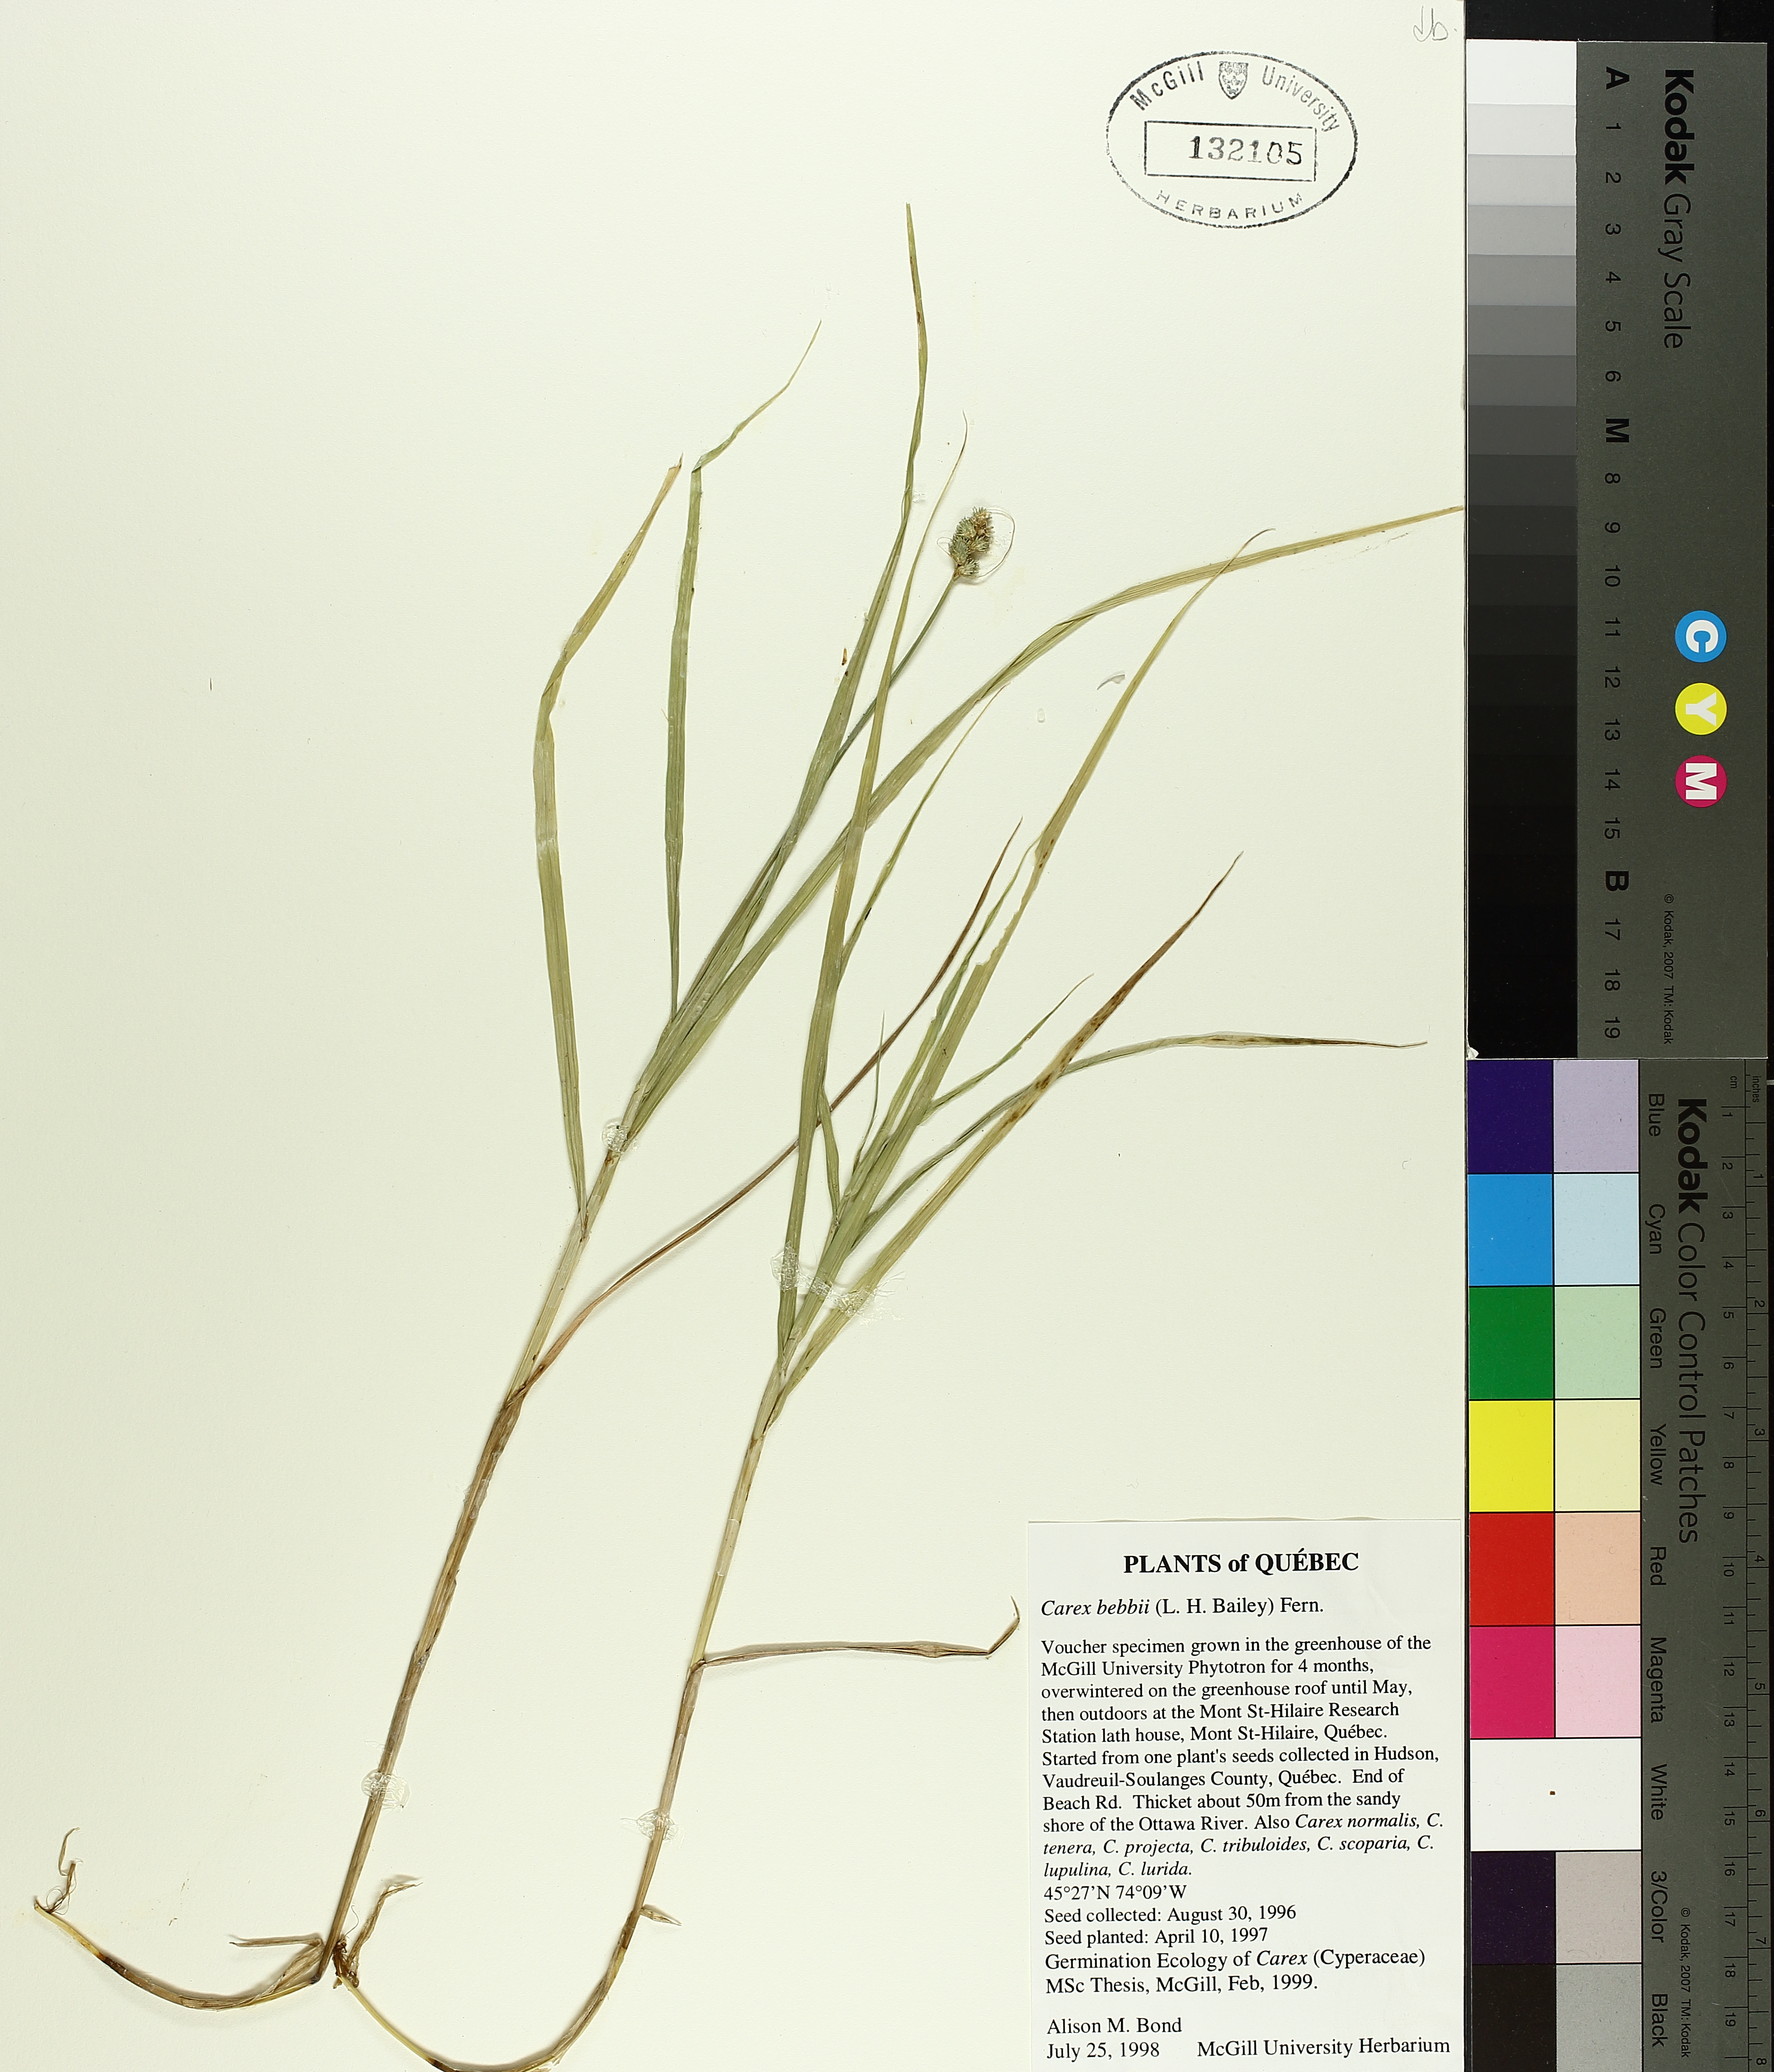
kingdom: Plantae
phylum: Tracheophyta
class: Liliopsida
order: Poales
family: Cyperaceae
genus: Carex
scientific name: Carex bebbii
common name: Bebb's sedge
